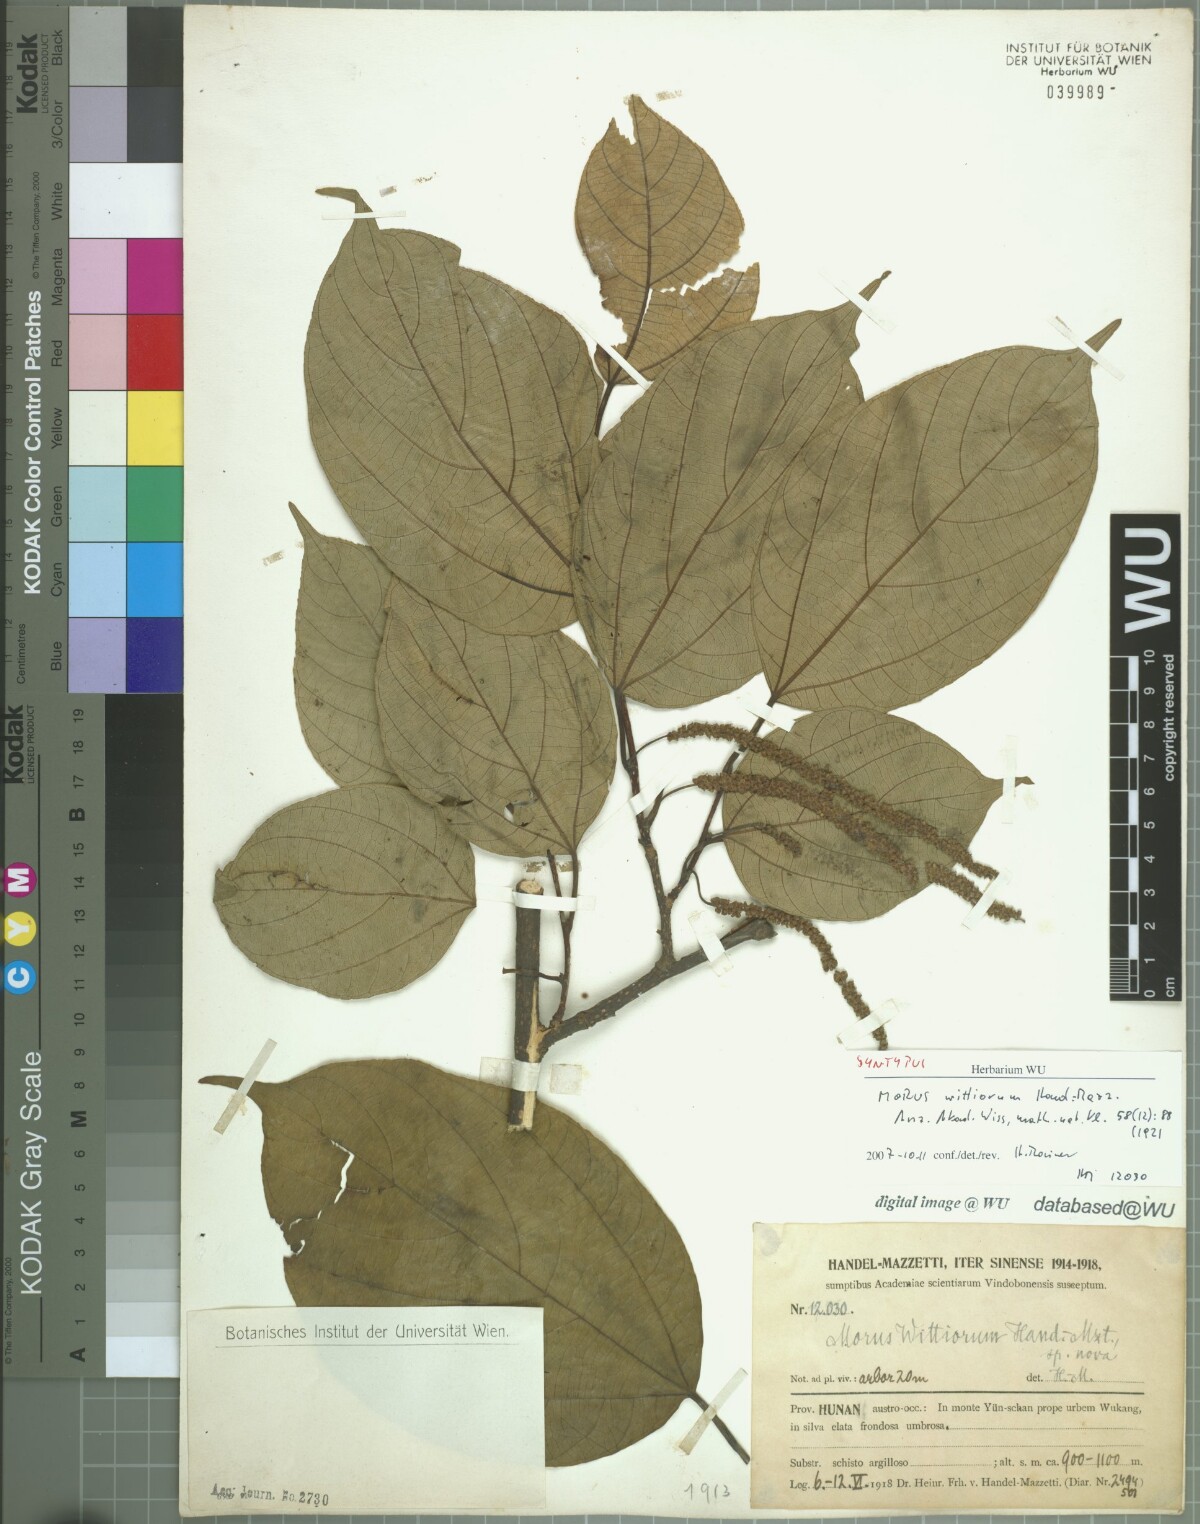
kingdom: Plantae
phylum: Tracheophyta
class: Magnoliopsida
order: Rosales
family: Moraceae
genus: Morus
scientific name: Morus wittiorum
